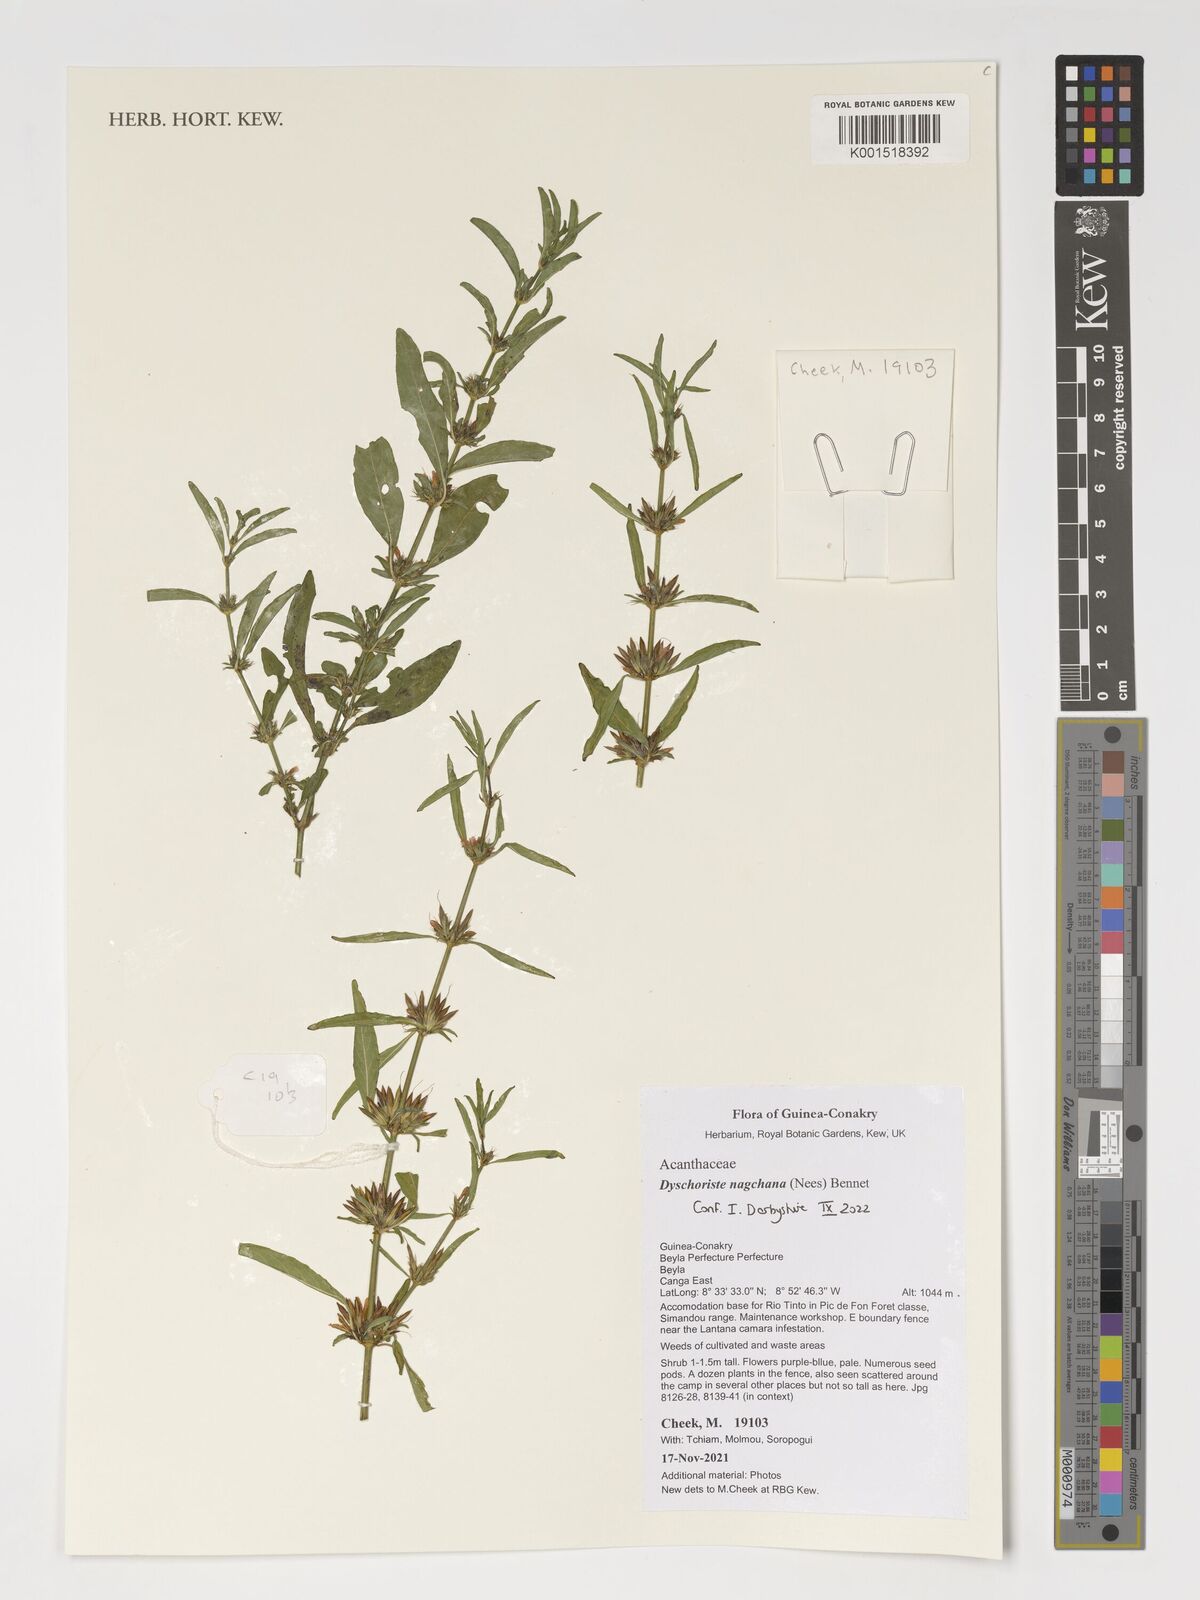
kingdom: Plantae
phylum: Tracheophyta
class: Magnoliopsida
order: Lamiales
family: Acanthaceae
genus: Dyschoriste
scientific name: Dyschoriste nagchana
